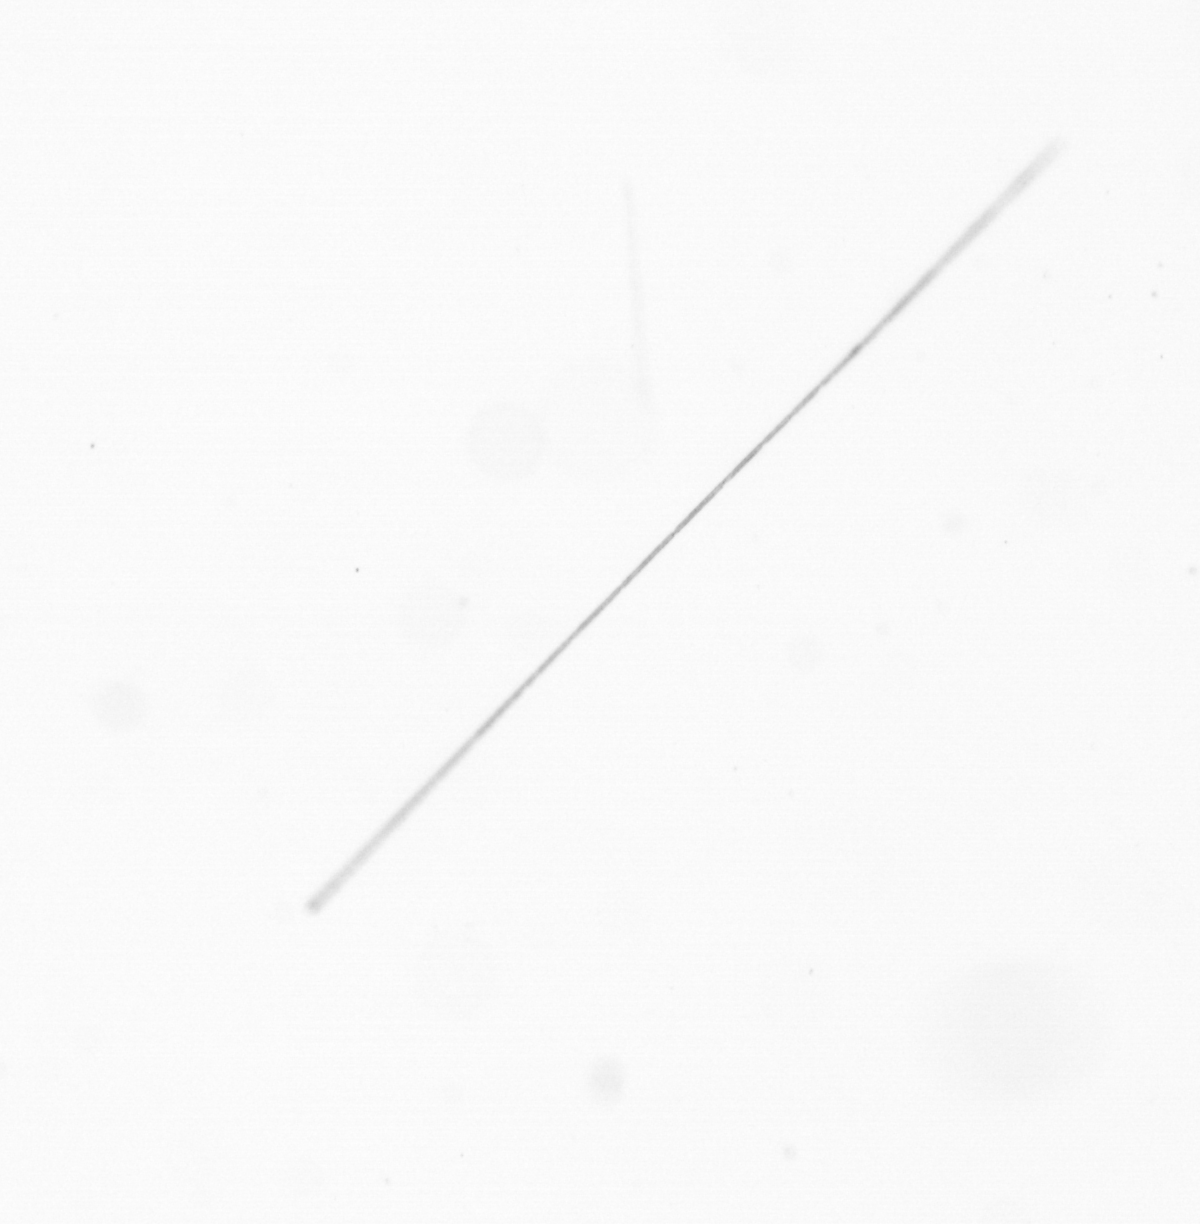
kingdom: Chromista
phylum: Ochrophyta
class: Bacillariophyceae
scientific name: Bacillariophyceae
